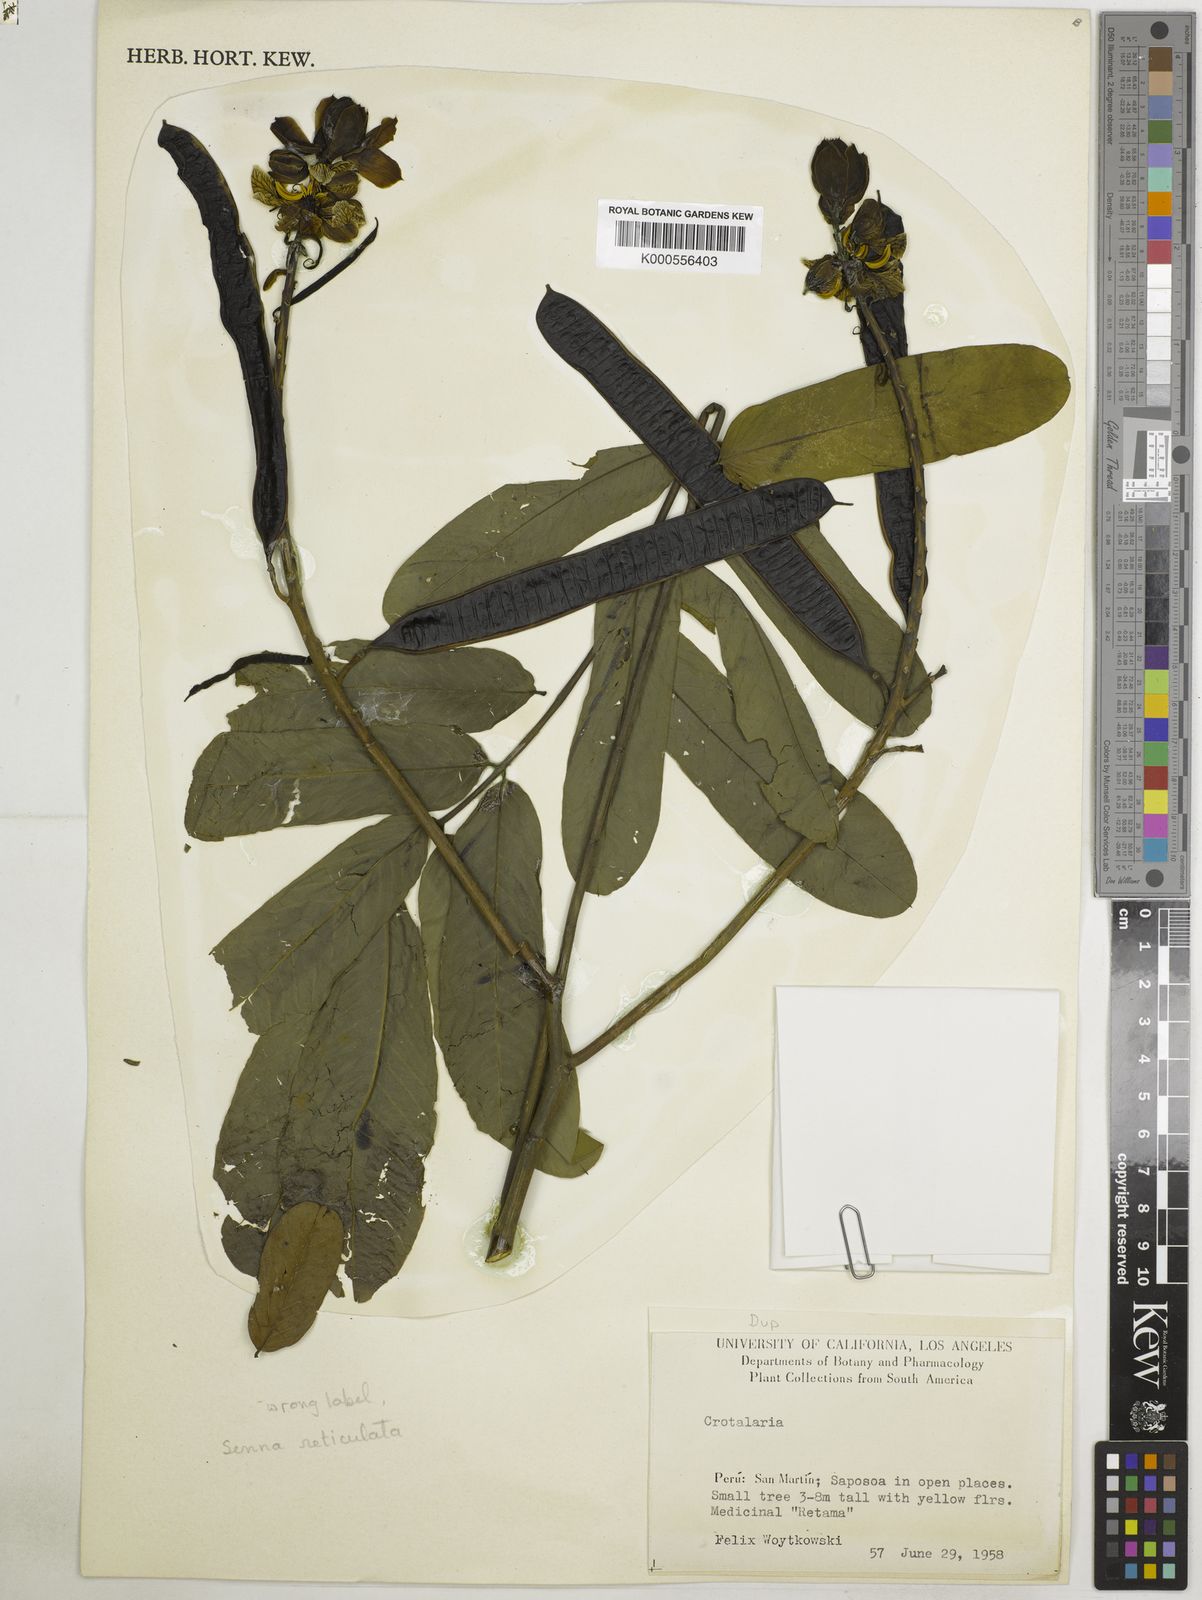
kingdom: Plantae
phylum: Tracheophyta
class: Magnoliopsida
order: Fabales
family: Fabaceae
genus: Senna
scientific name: Senna reticulata
